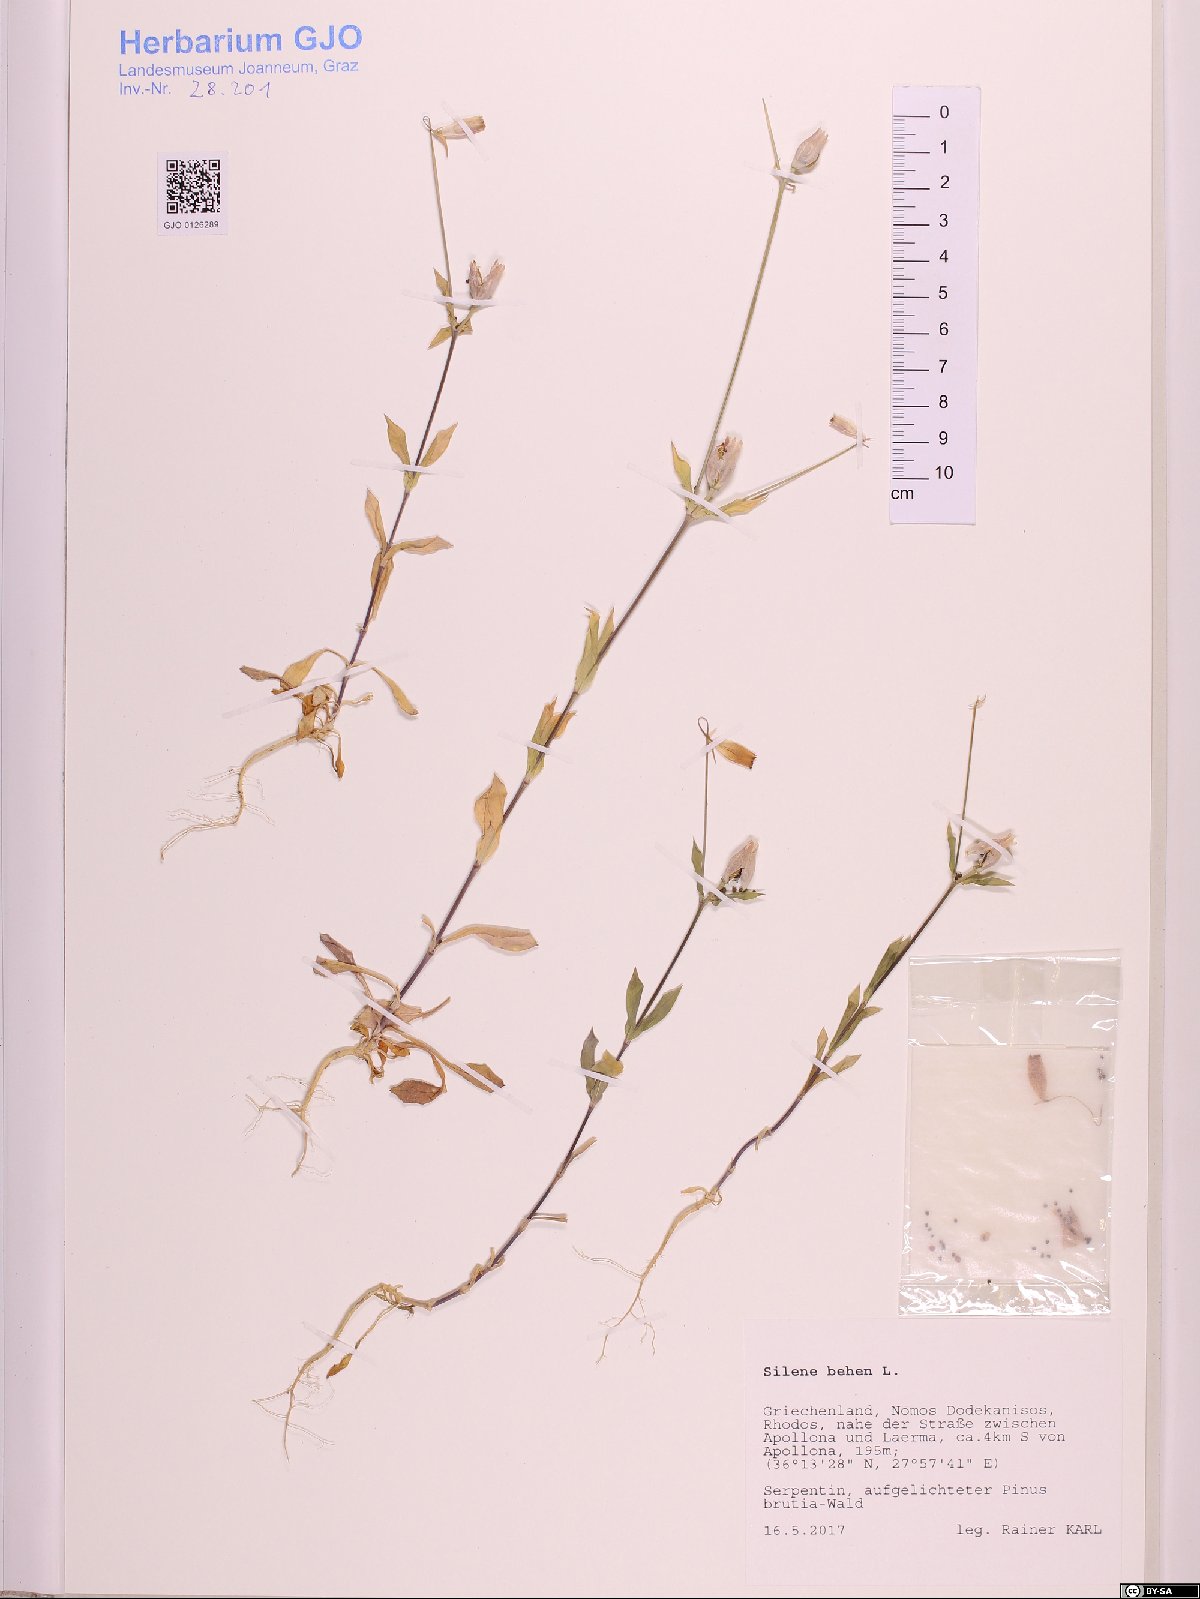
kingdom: Plantae
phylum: Tracheophyta
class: Magnoliopsida
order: Caryophyllales
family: Caryophyllaceae
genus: Silene
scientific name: Silene behen
